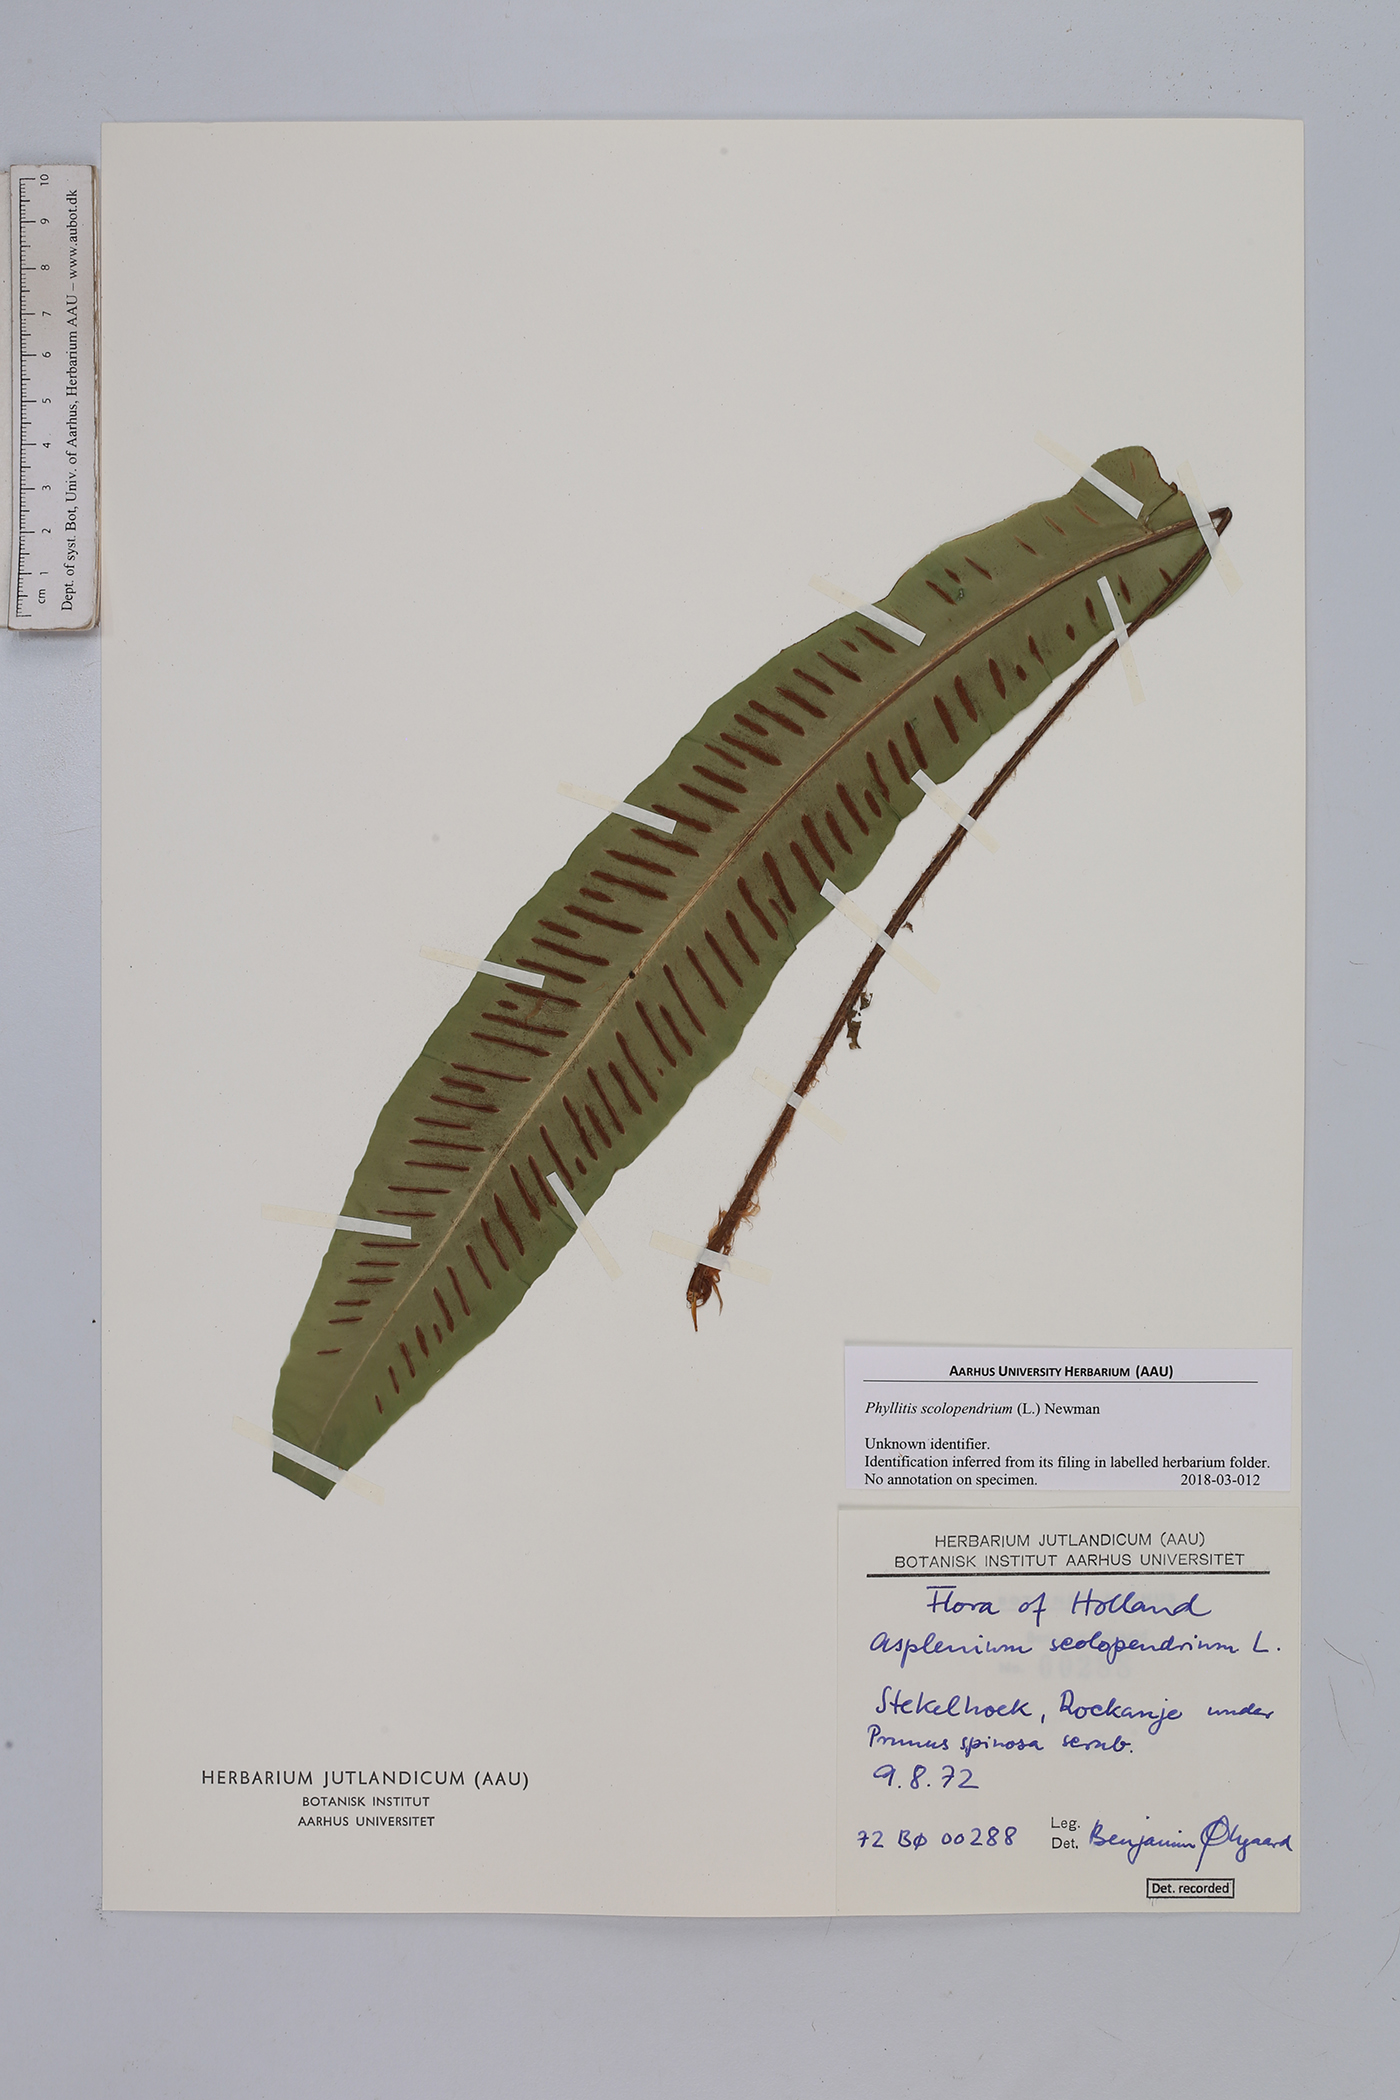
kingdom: Plantae
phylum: Tracheophyta
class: Polypodiopsida
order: Polypodiales
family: Aspleniaceae
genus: Asplenium
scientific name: Asplenium scolopendrium
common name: Hart's-tongue fern
